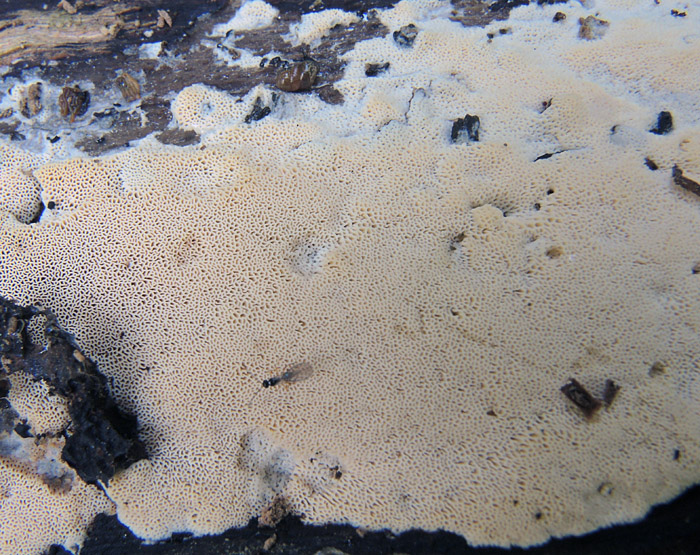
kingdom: Fungi
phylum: Basidiomycota
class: Agaricomycetes
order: Polyporales
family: Irpicaceae
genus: Ceriporia
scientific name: Ceriporia viridans
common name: foranderlig voksporesvamp
